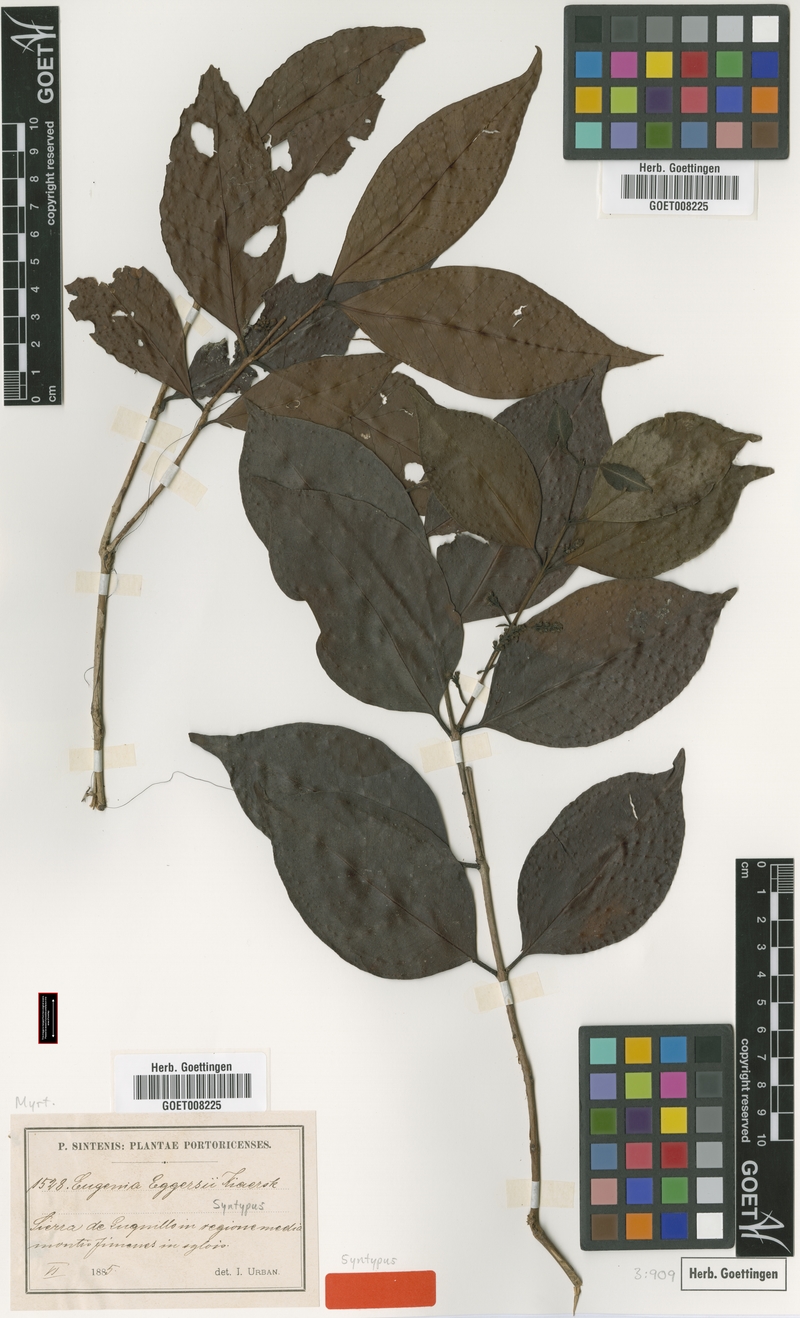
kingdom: Plantae
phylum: Tracheophyta
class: Magnoliopsida
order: Myrtales
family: Myrtaceae
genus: Eugenia
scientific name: Eugenia eggersii
